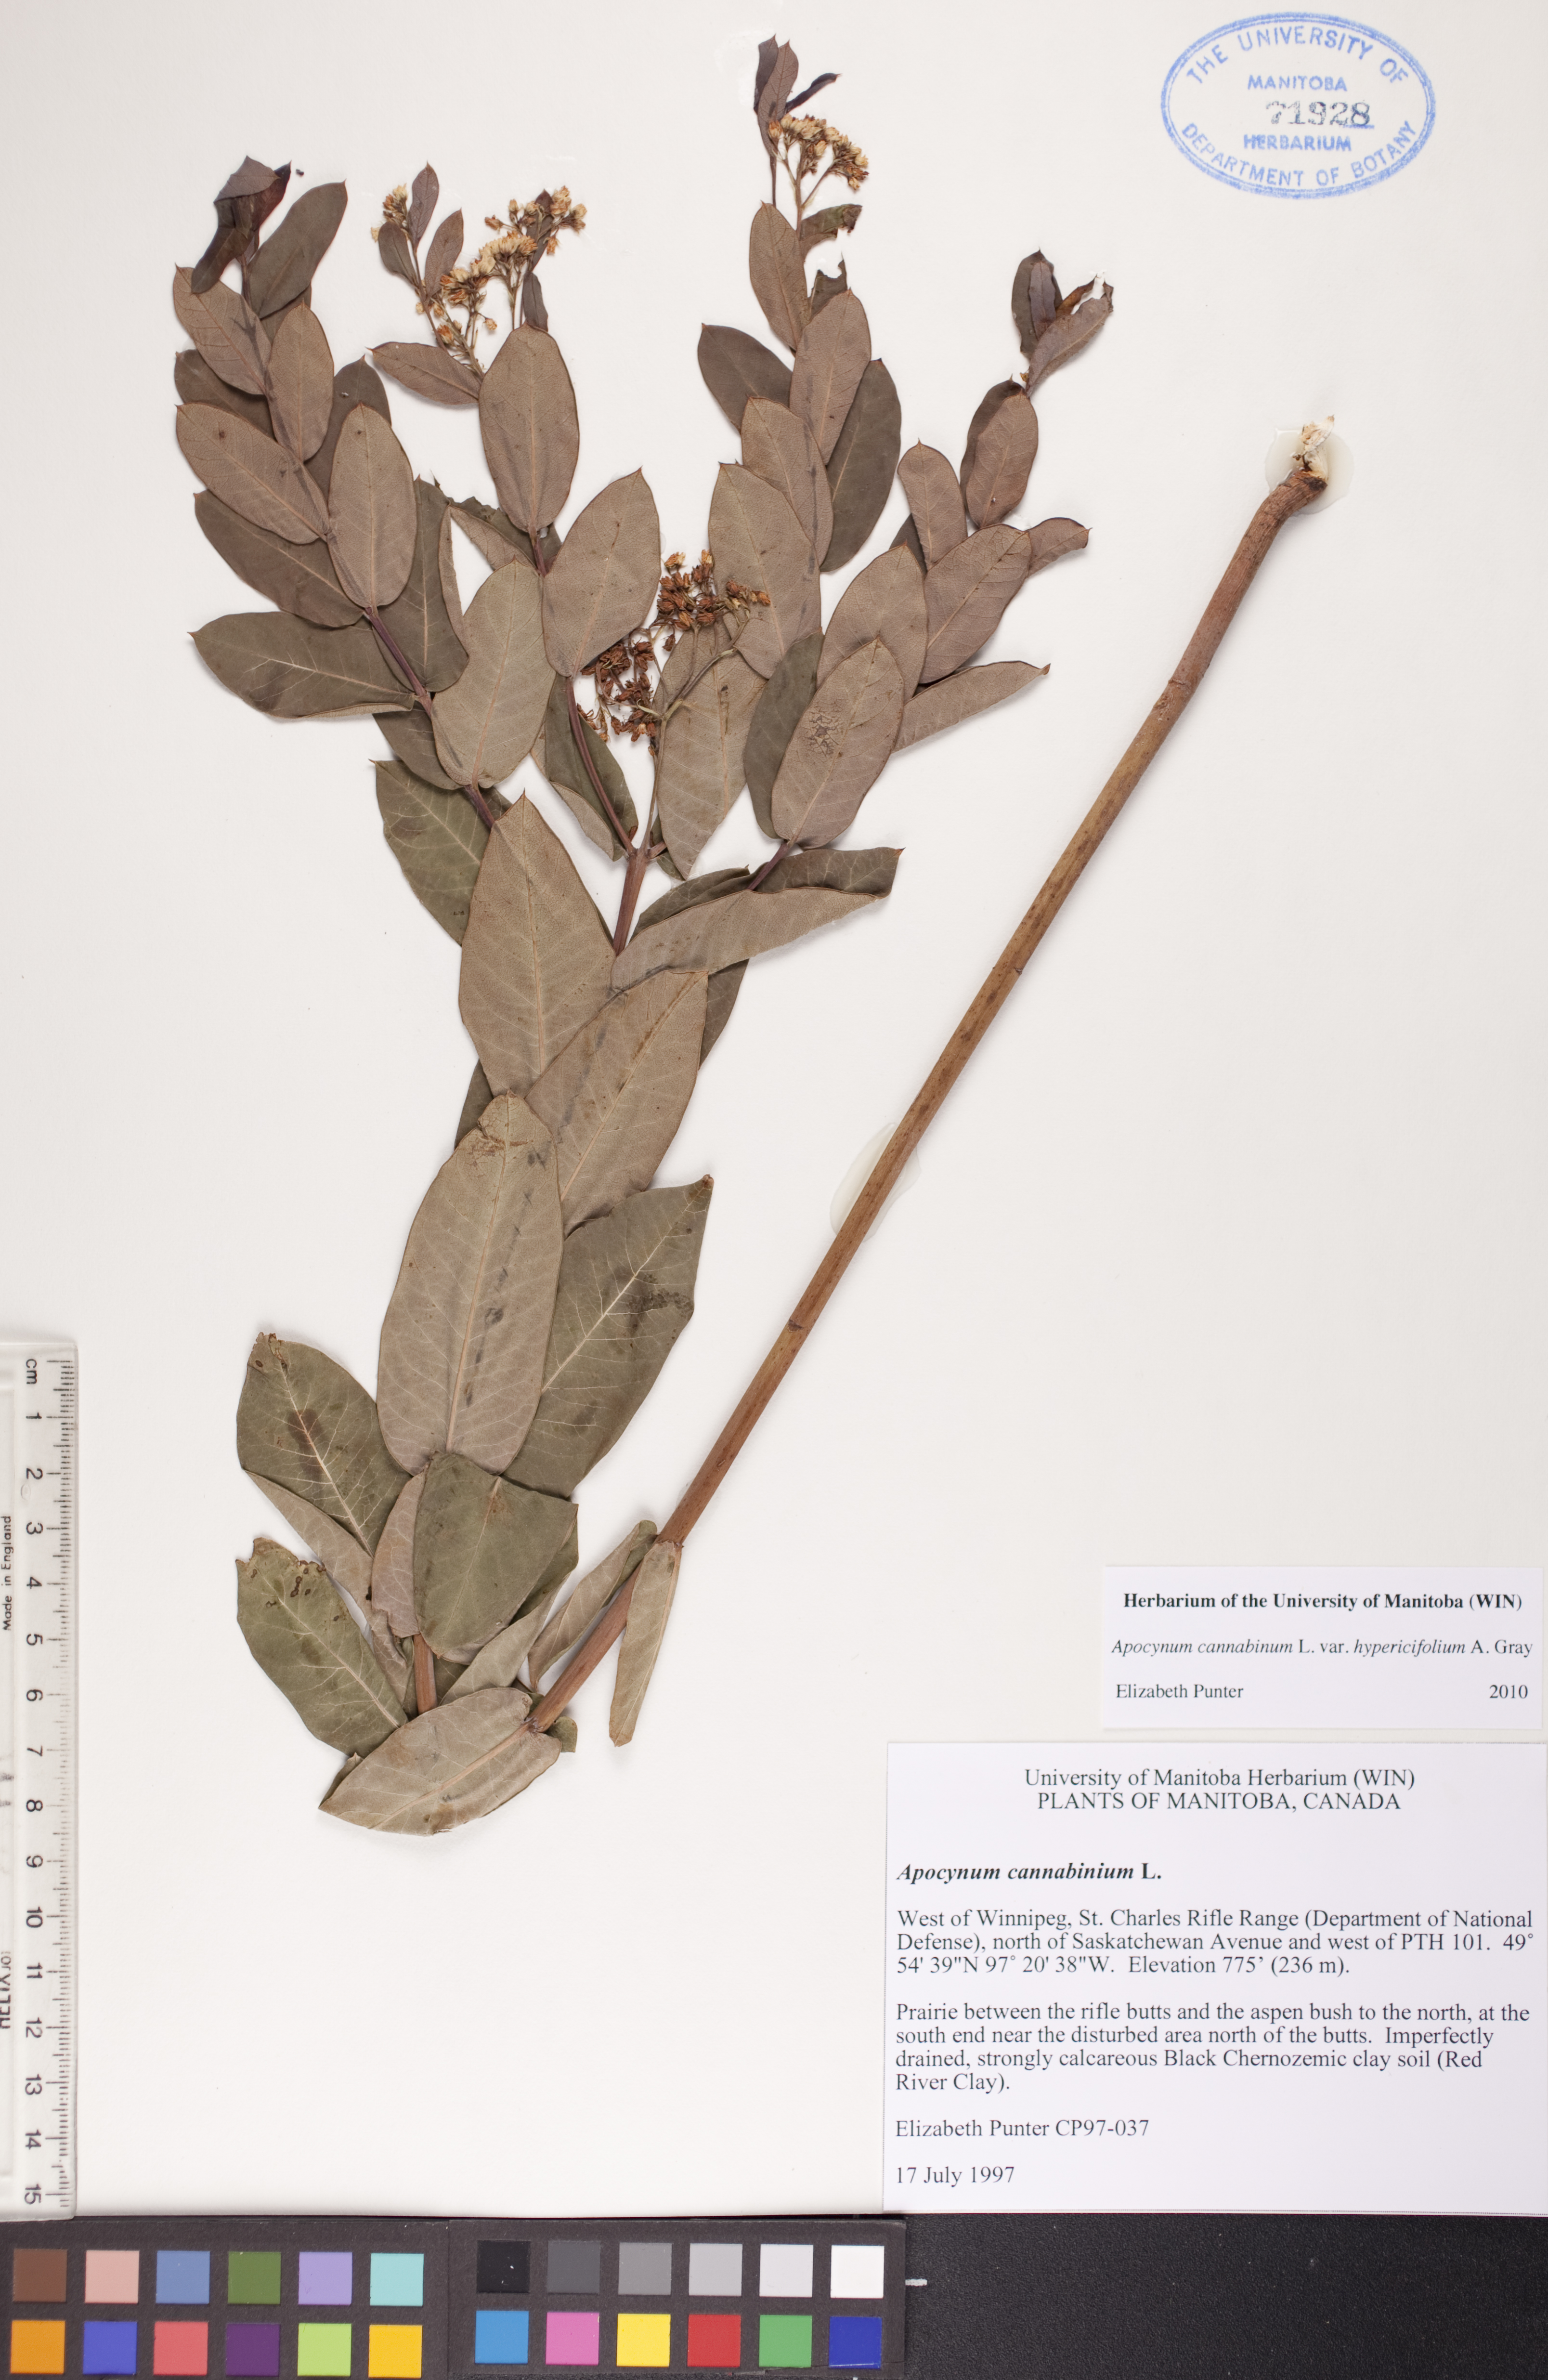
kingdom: Plantae
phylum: Tracheophyta
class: Magnoliopsida
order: Gentianales
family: Apocynaceae
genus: Apocynum
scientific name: Apocynum cannabinum
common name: Hemp dogbane
